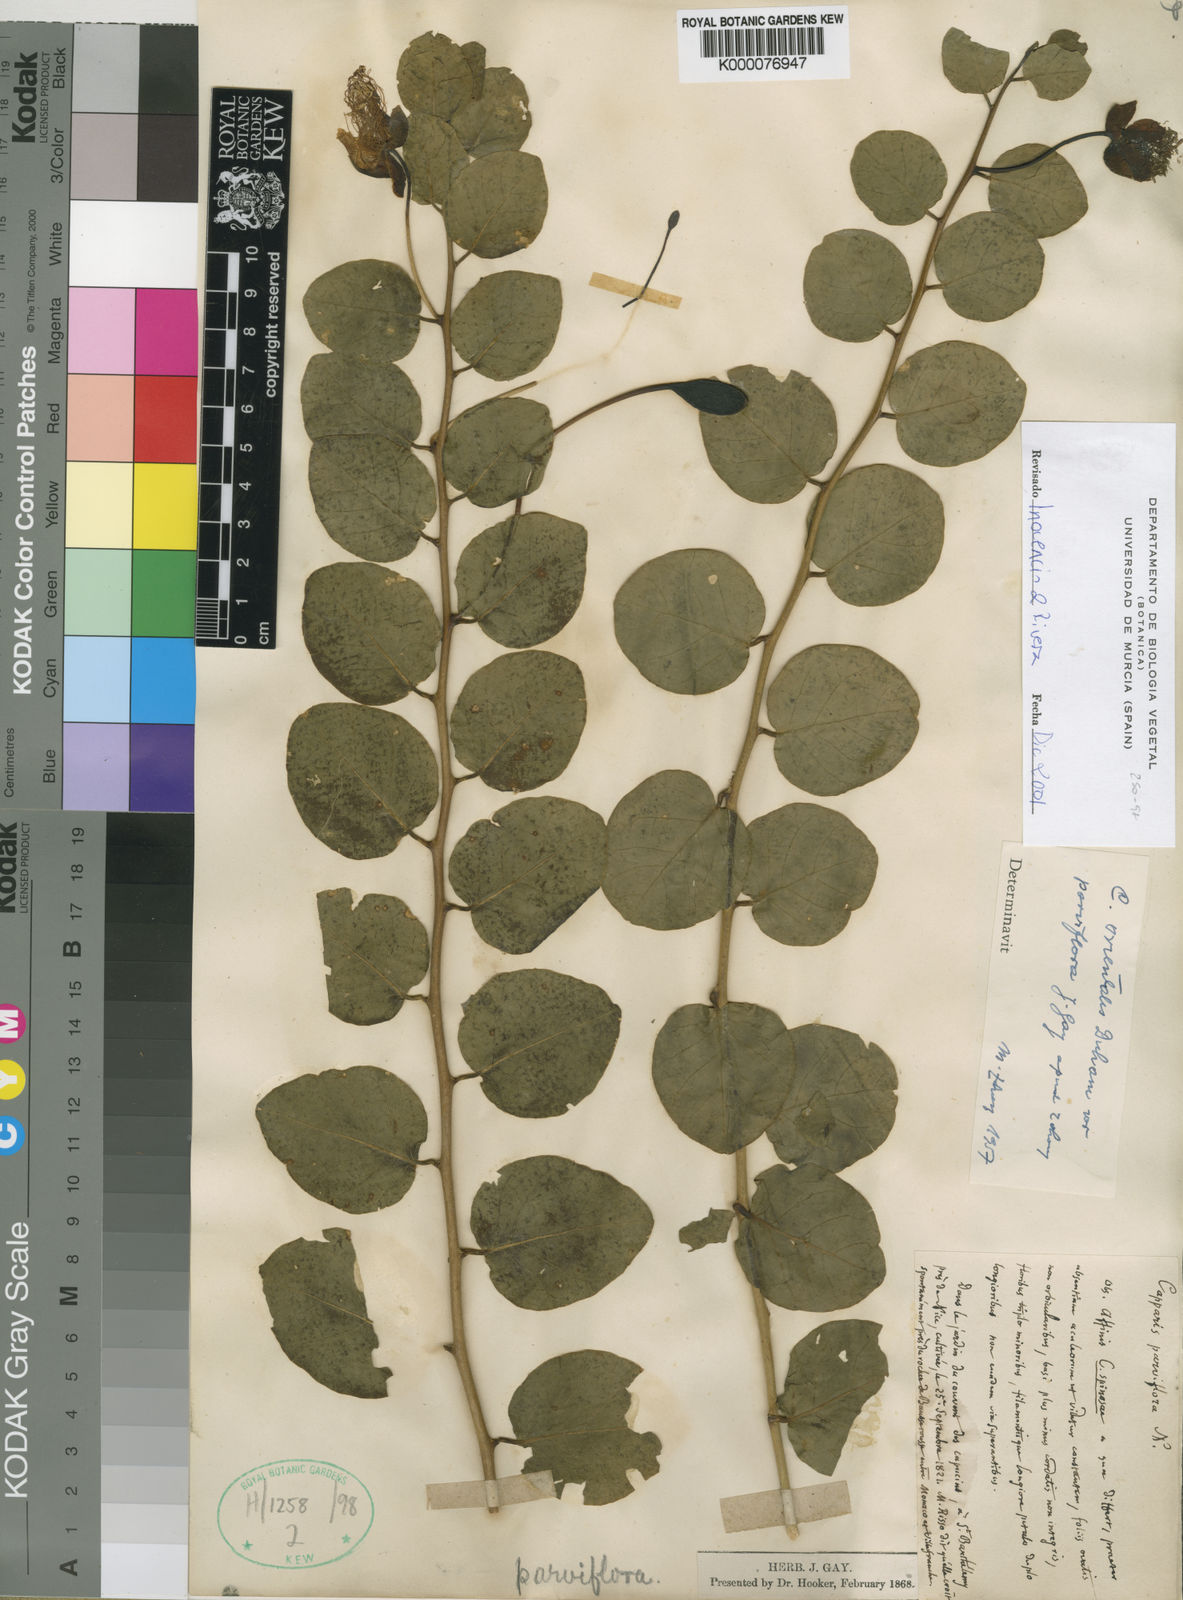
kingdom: Plantae
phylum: Tracheophyta
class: Magnoliopsida
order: Brassicales
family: Capparaceae
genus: Capparis
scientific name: Capparis
